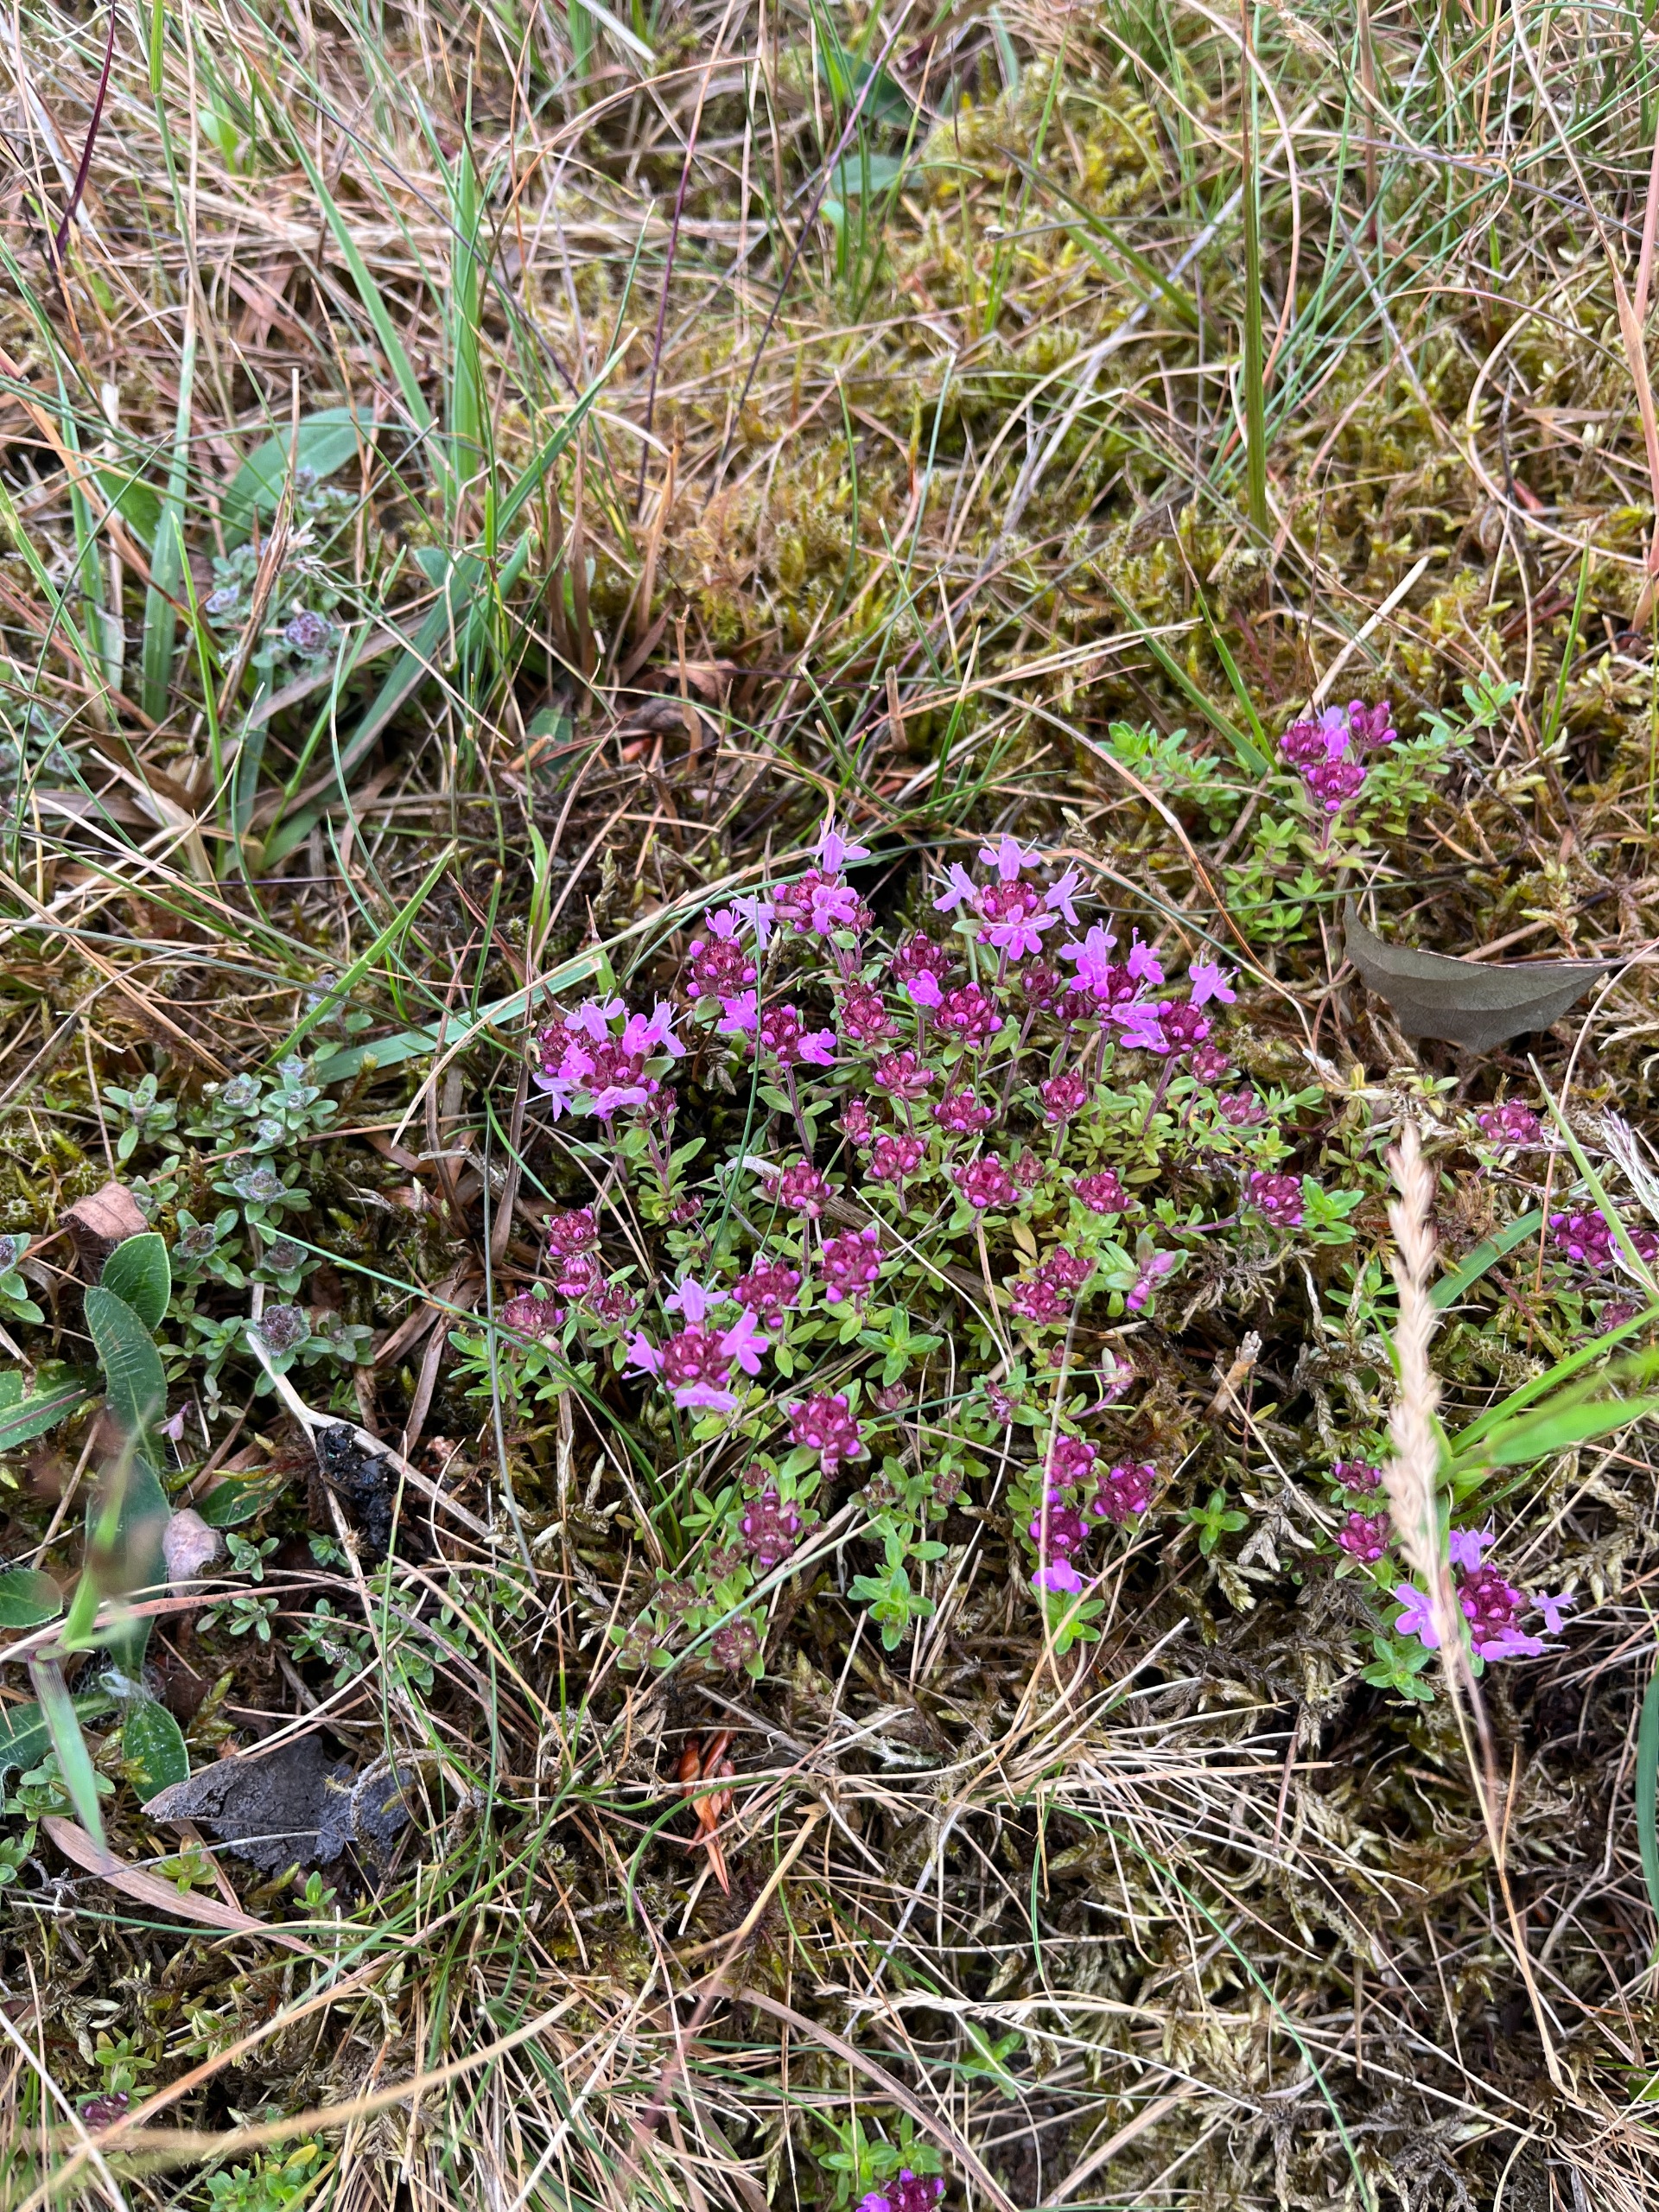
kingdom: Plantae
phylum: Tracheophyta
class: Magnoliopsida
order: Lamiales
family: Lamiaceae
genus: Thymus
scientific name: Thymus serpyllum
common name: Smalbladet timian
